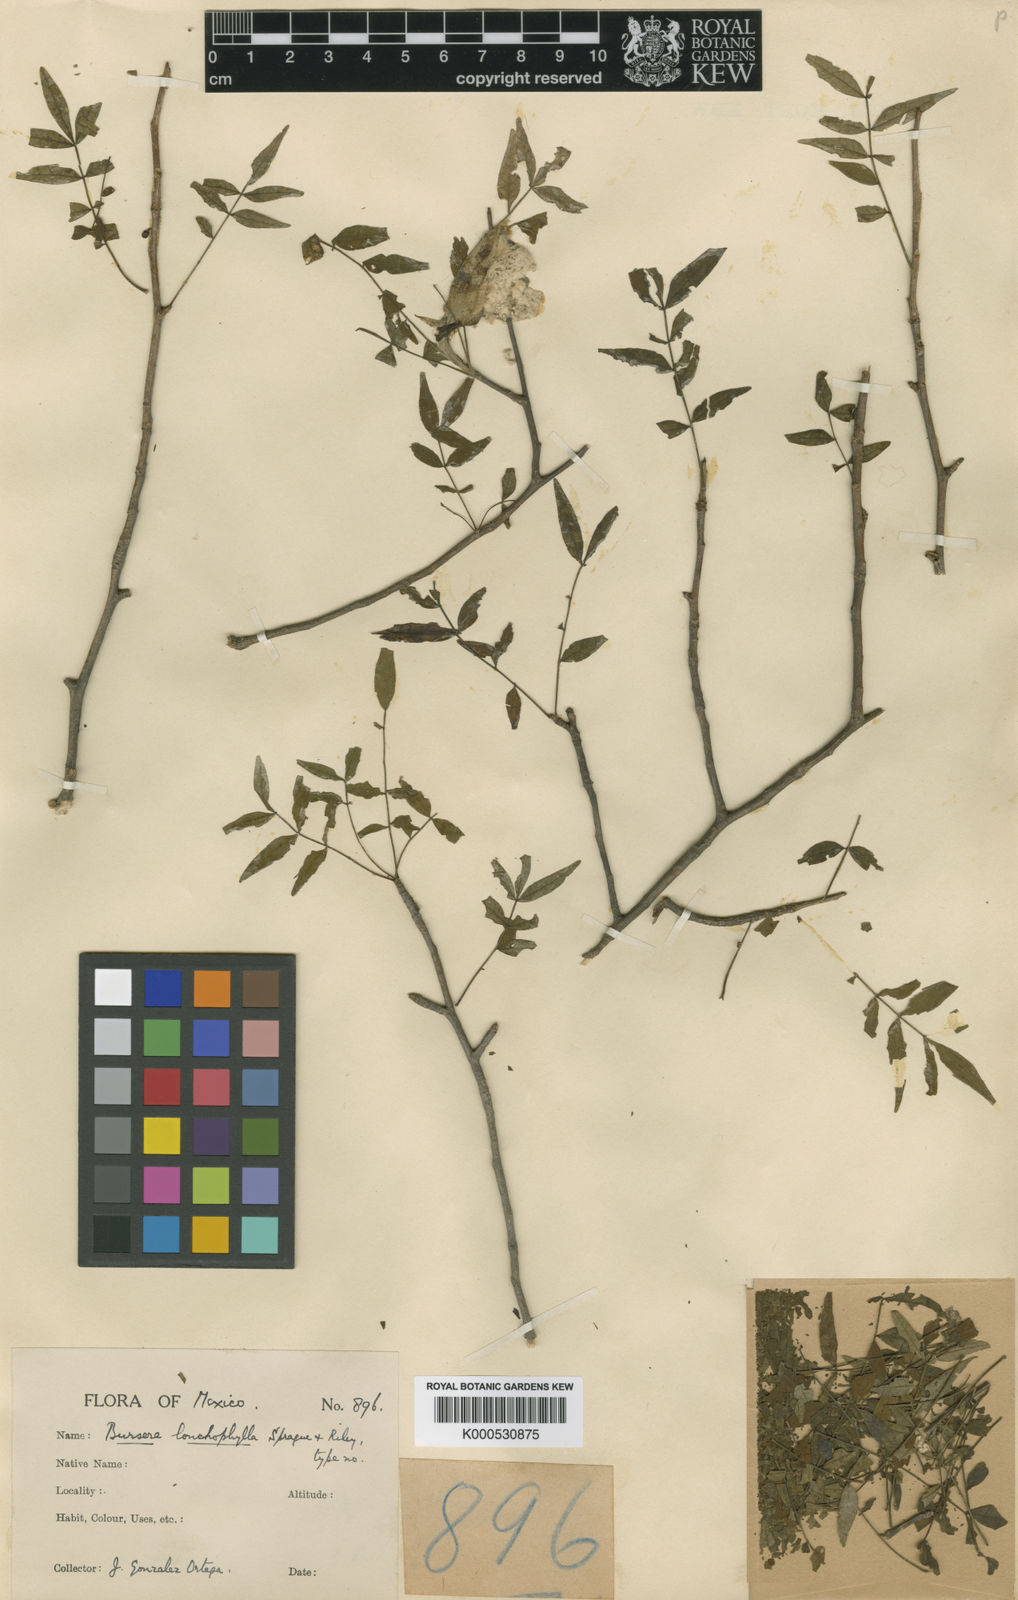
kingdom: Plantae
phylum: Tracheophyta
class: Magnoliopsida
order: Sapindales
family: Burseraceae
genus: Bursera
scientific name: Bursera confusa
